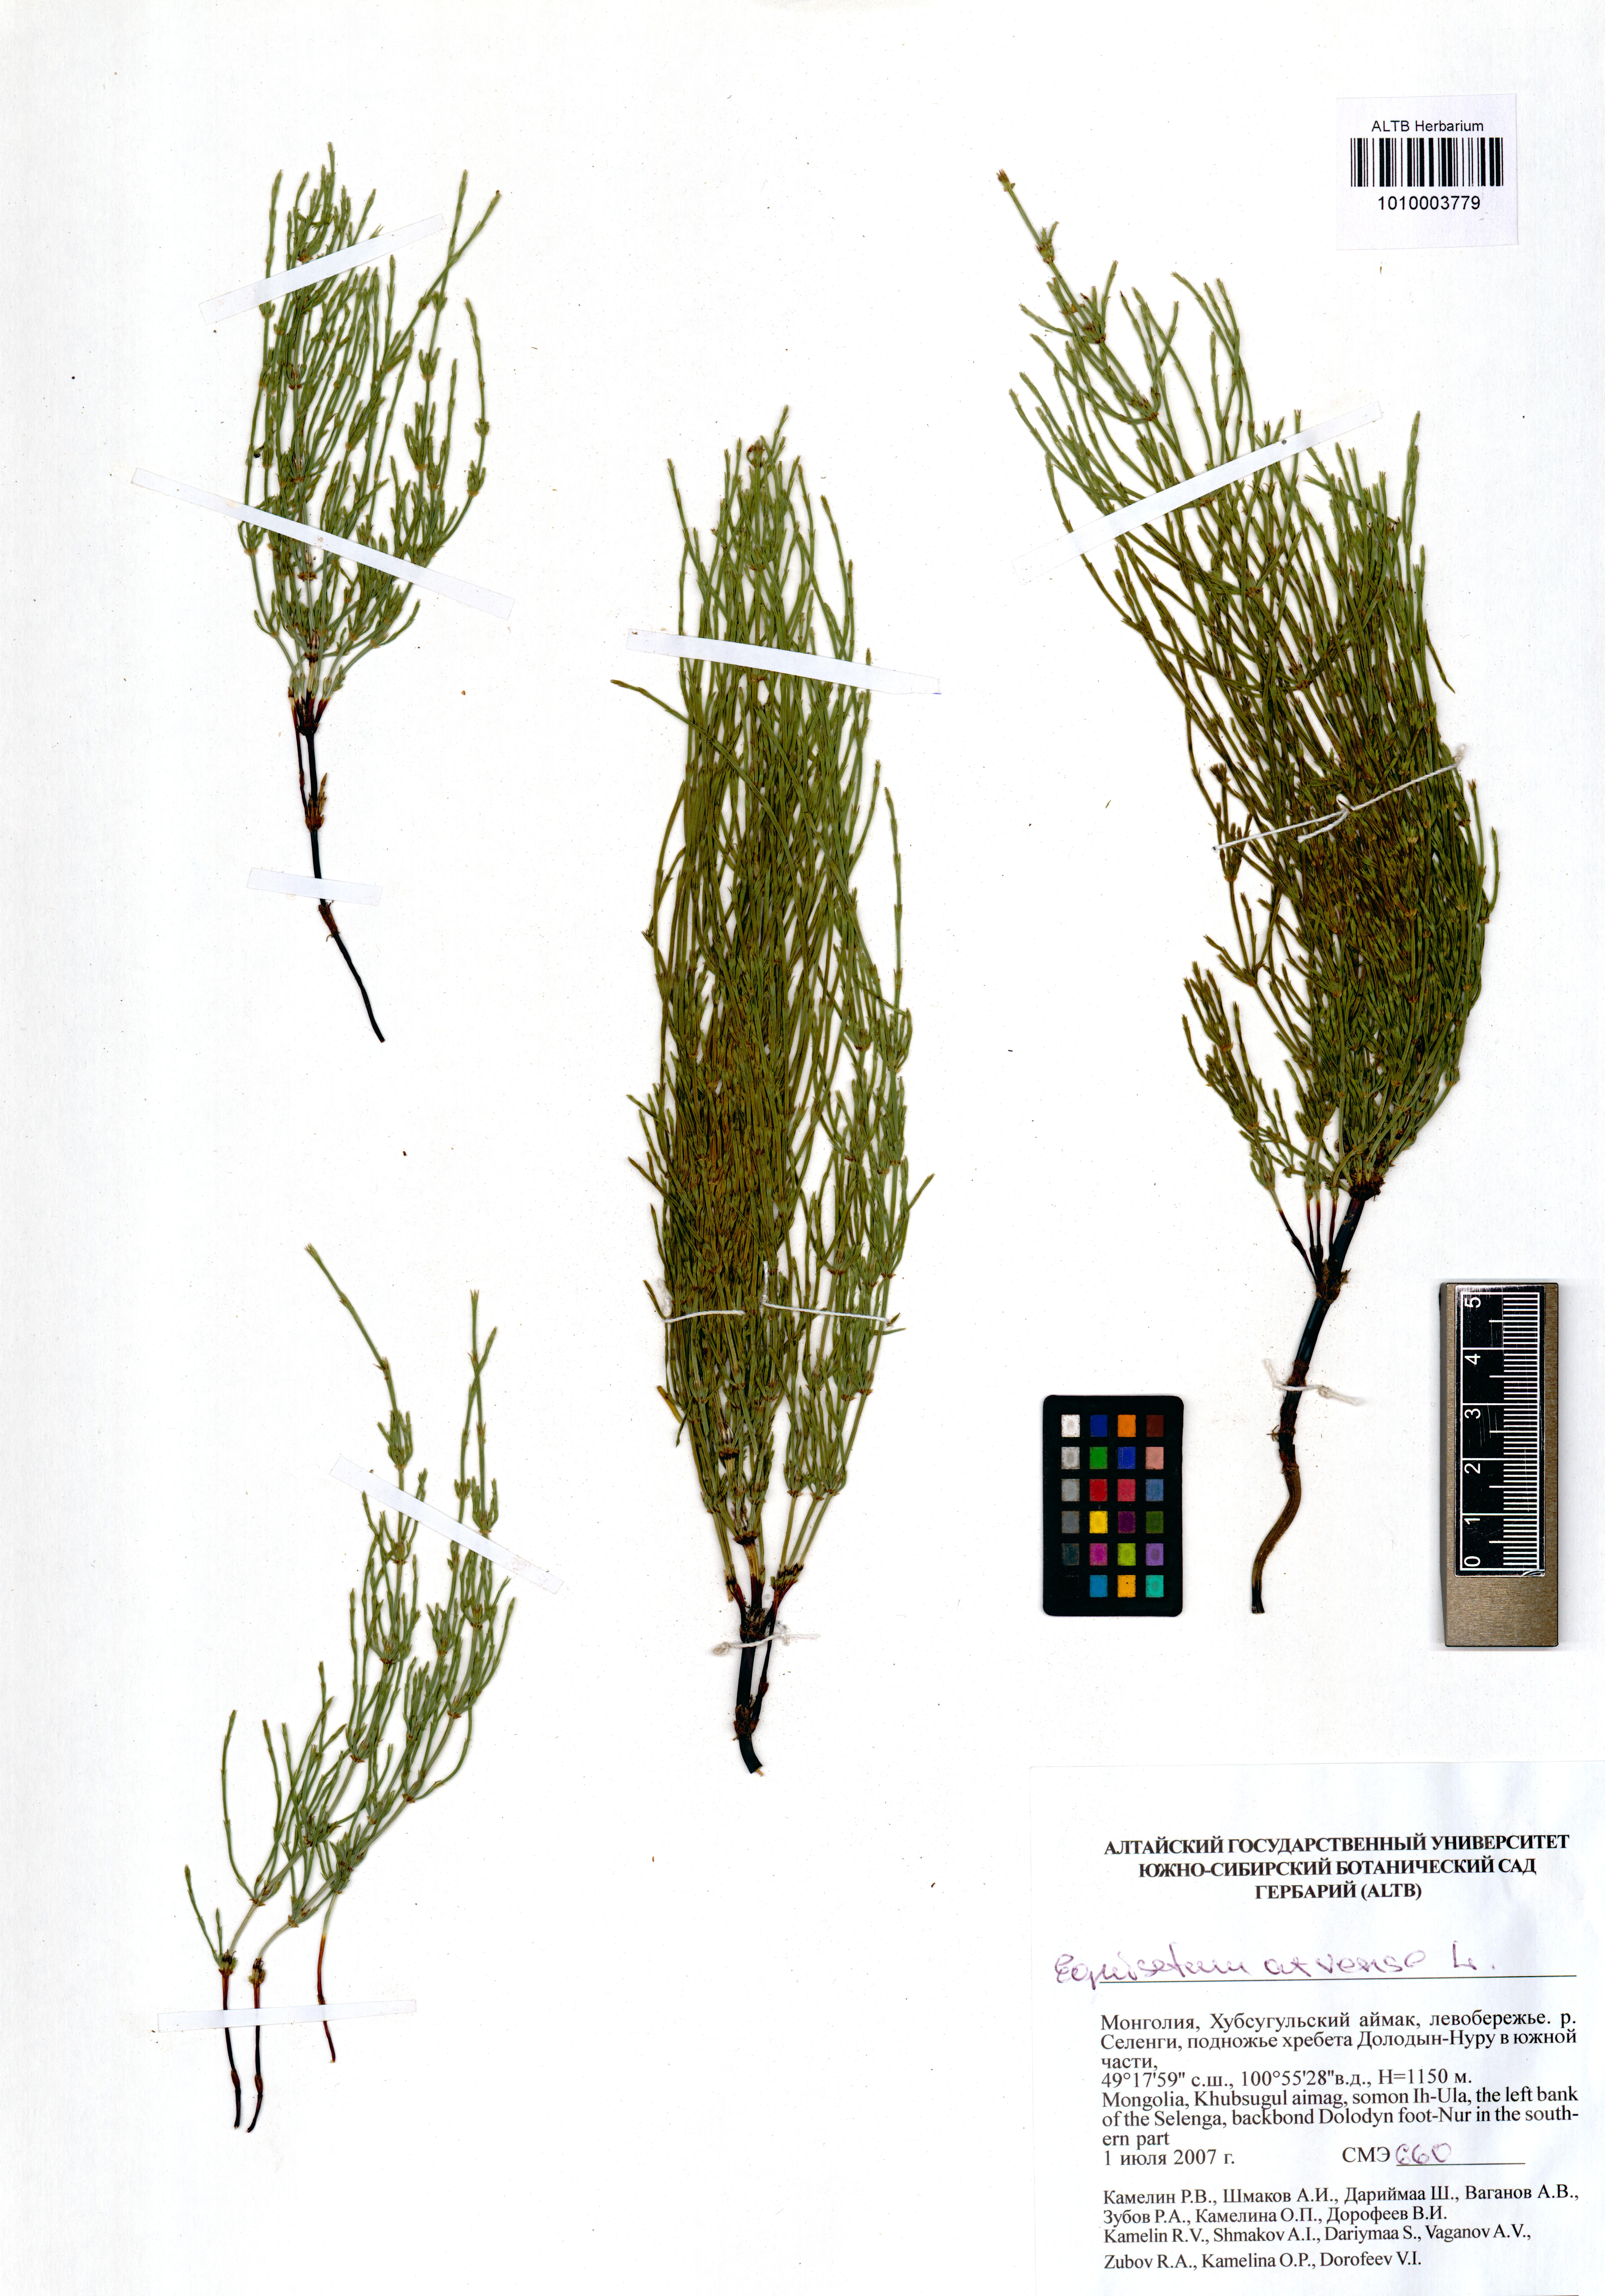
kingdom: Plantae
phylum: Tracheophyta
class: Polypodiopsida
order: Equisetales
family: Equisetaceae
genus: Equisetum
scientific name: Equisetum arvense
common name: Field horsetail
